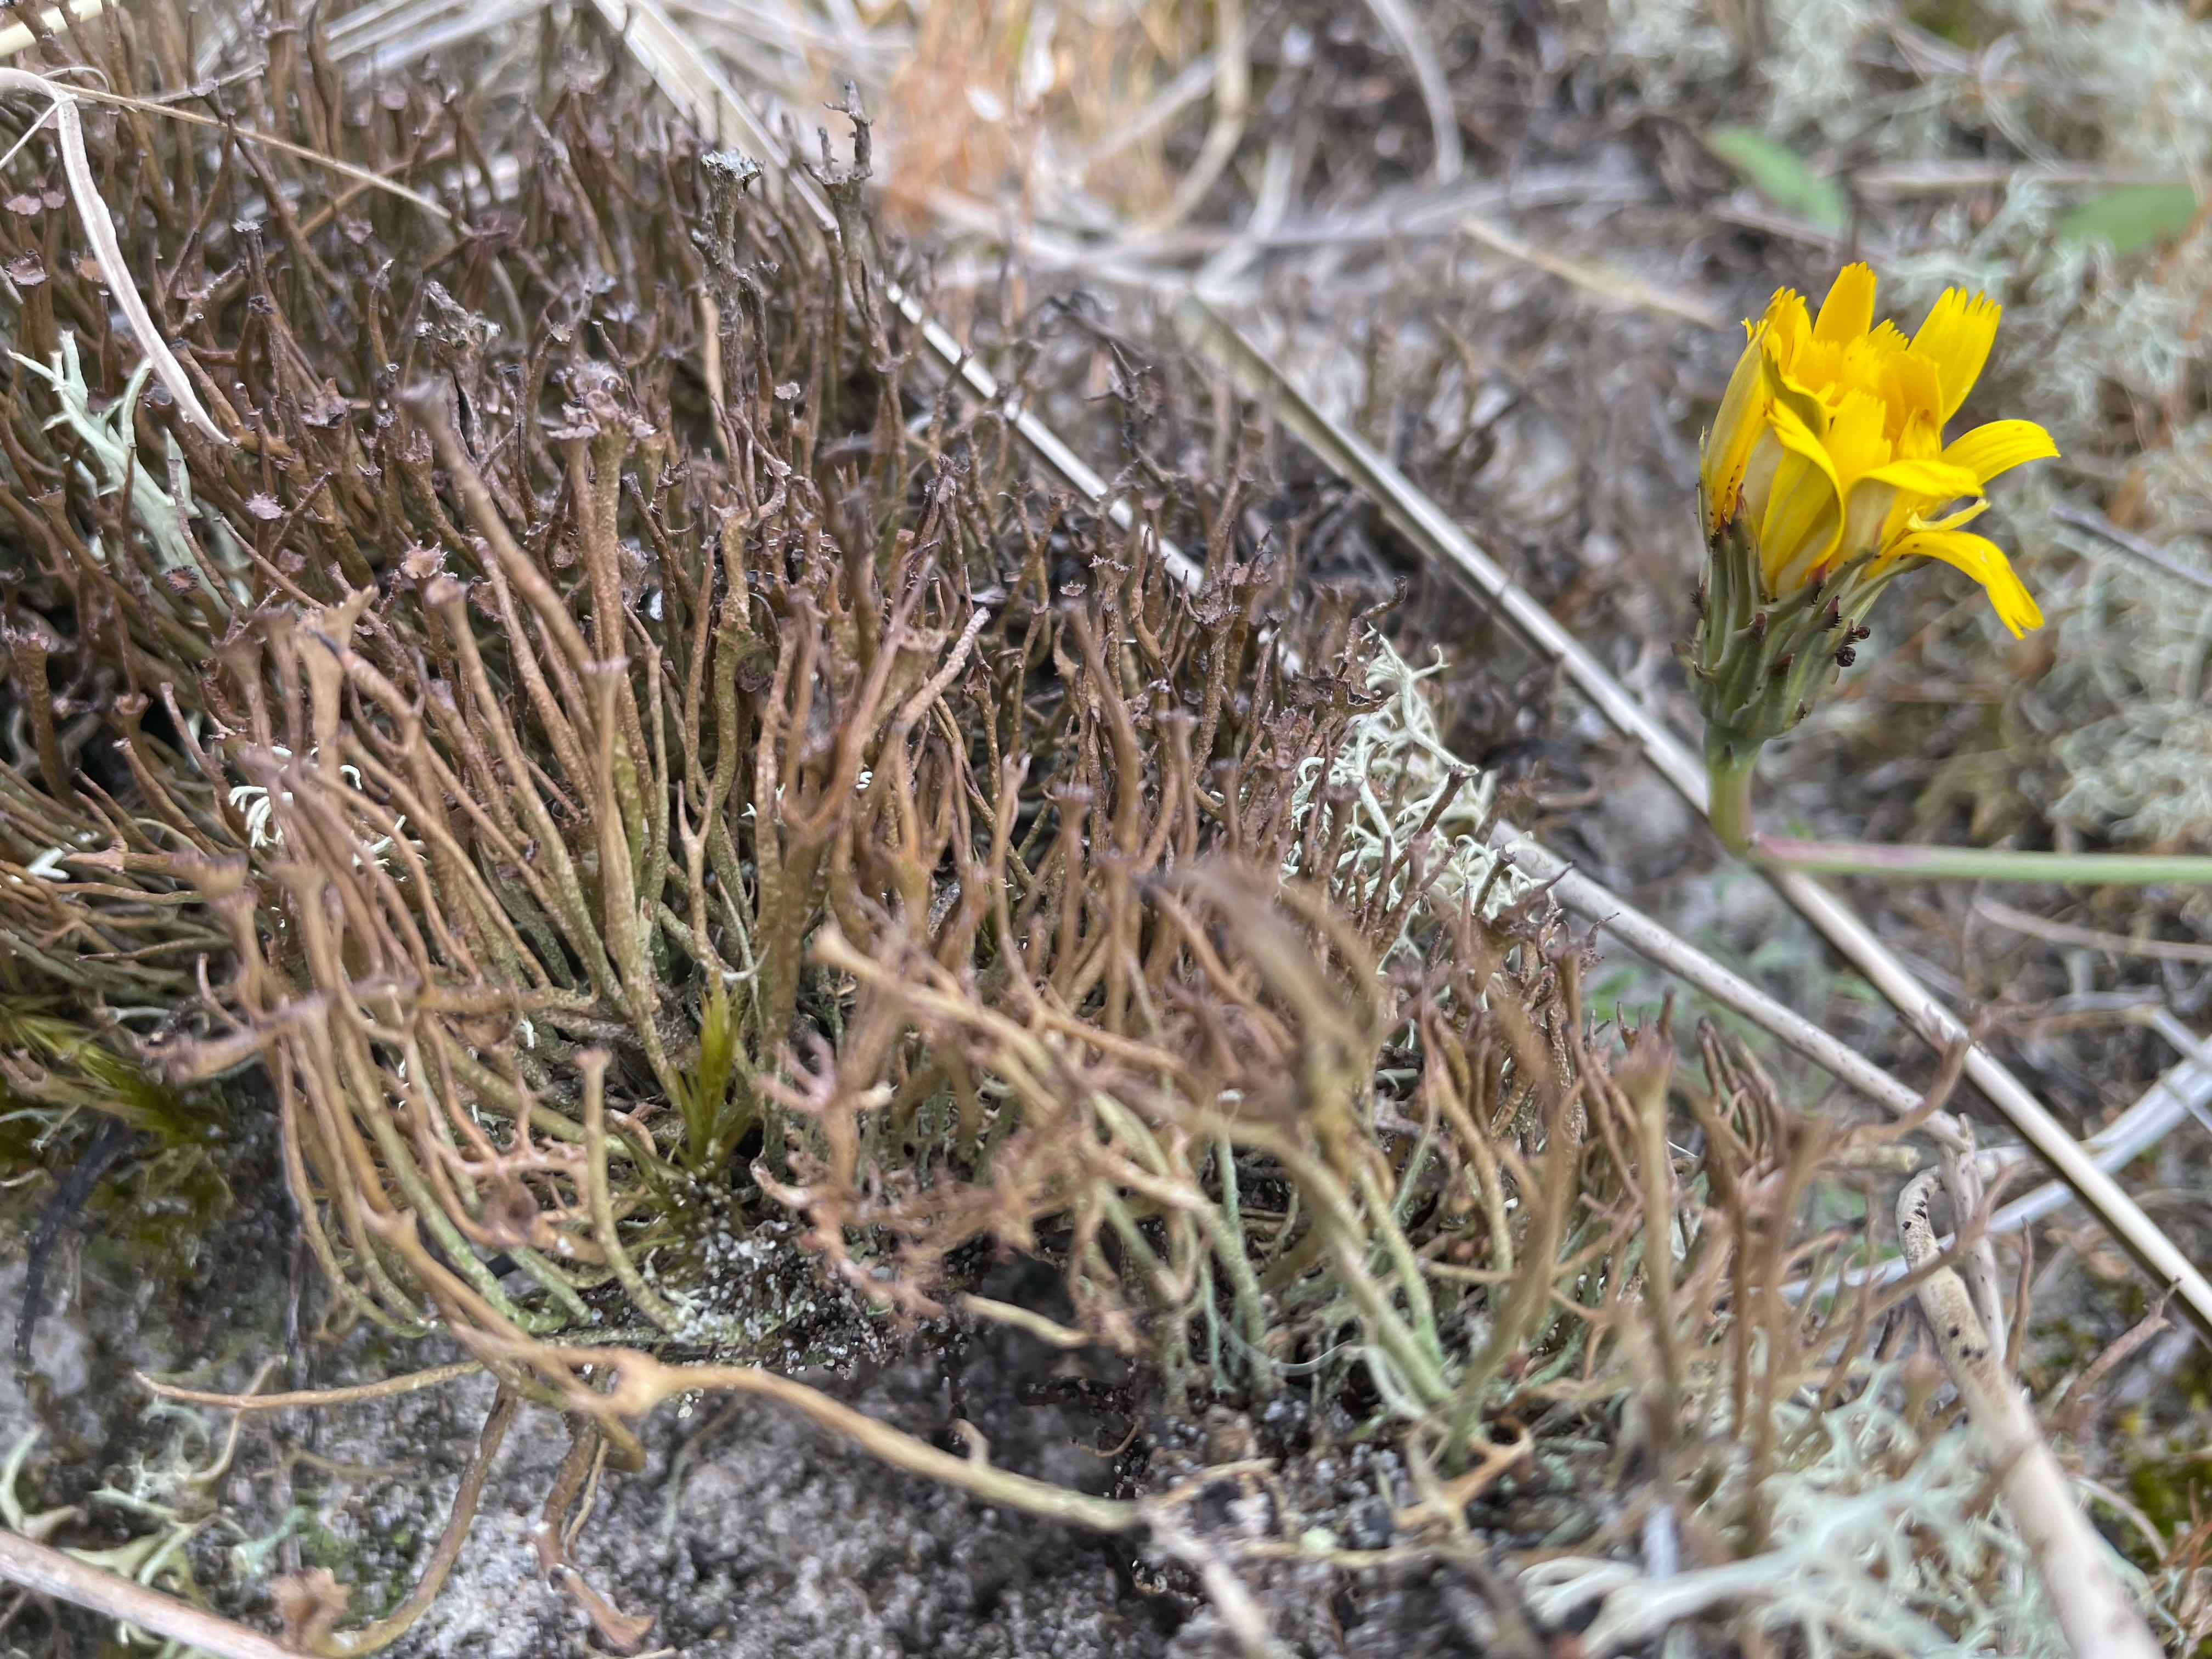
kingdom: Fungi
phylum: Ascomycota
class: Lecanoromycetes
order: Lecanorales
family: Cladoniaceae
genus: Cladonia
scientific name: Cladonia gracilis
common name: slank bægerlav
